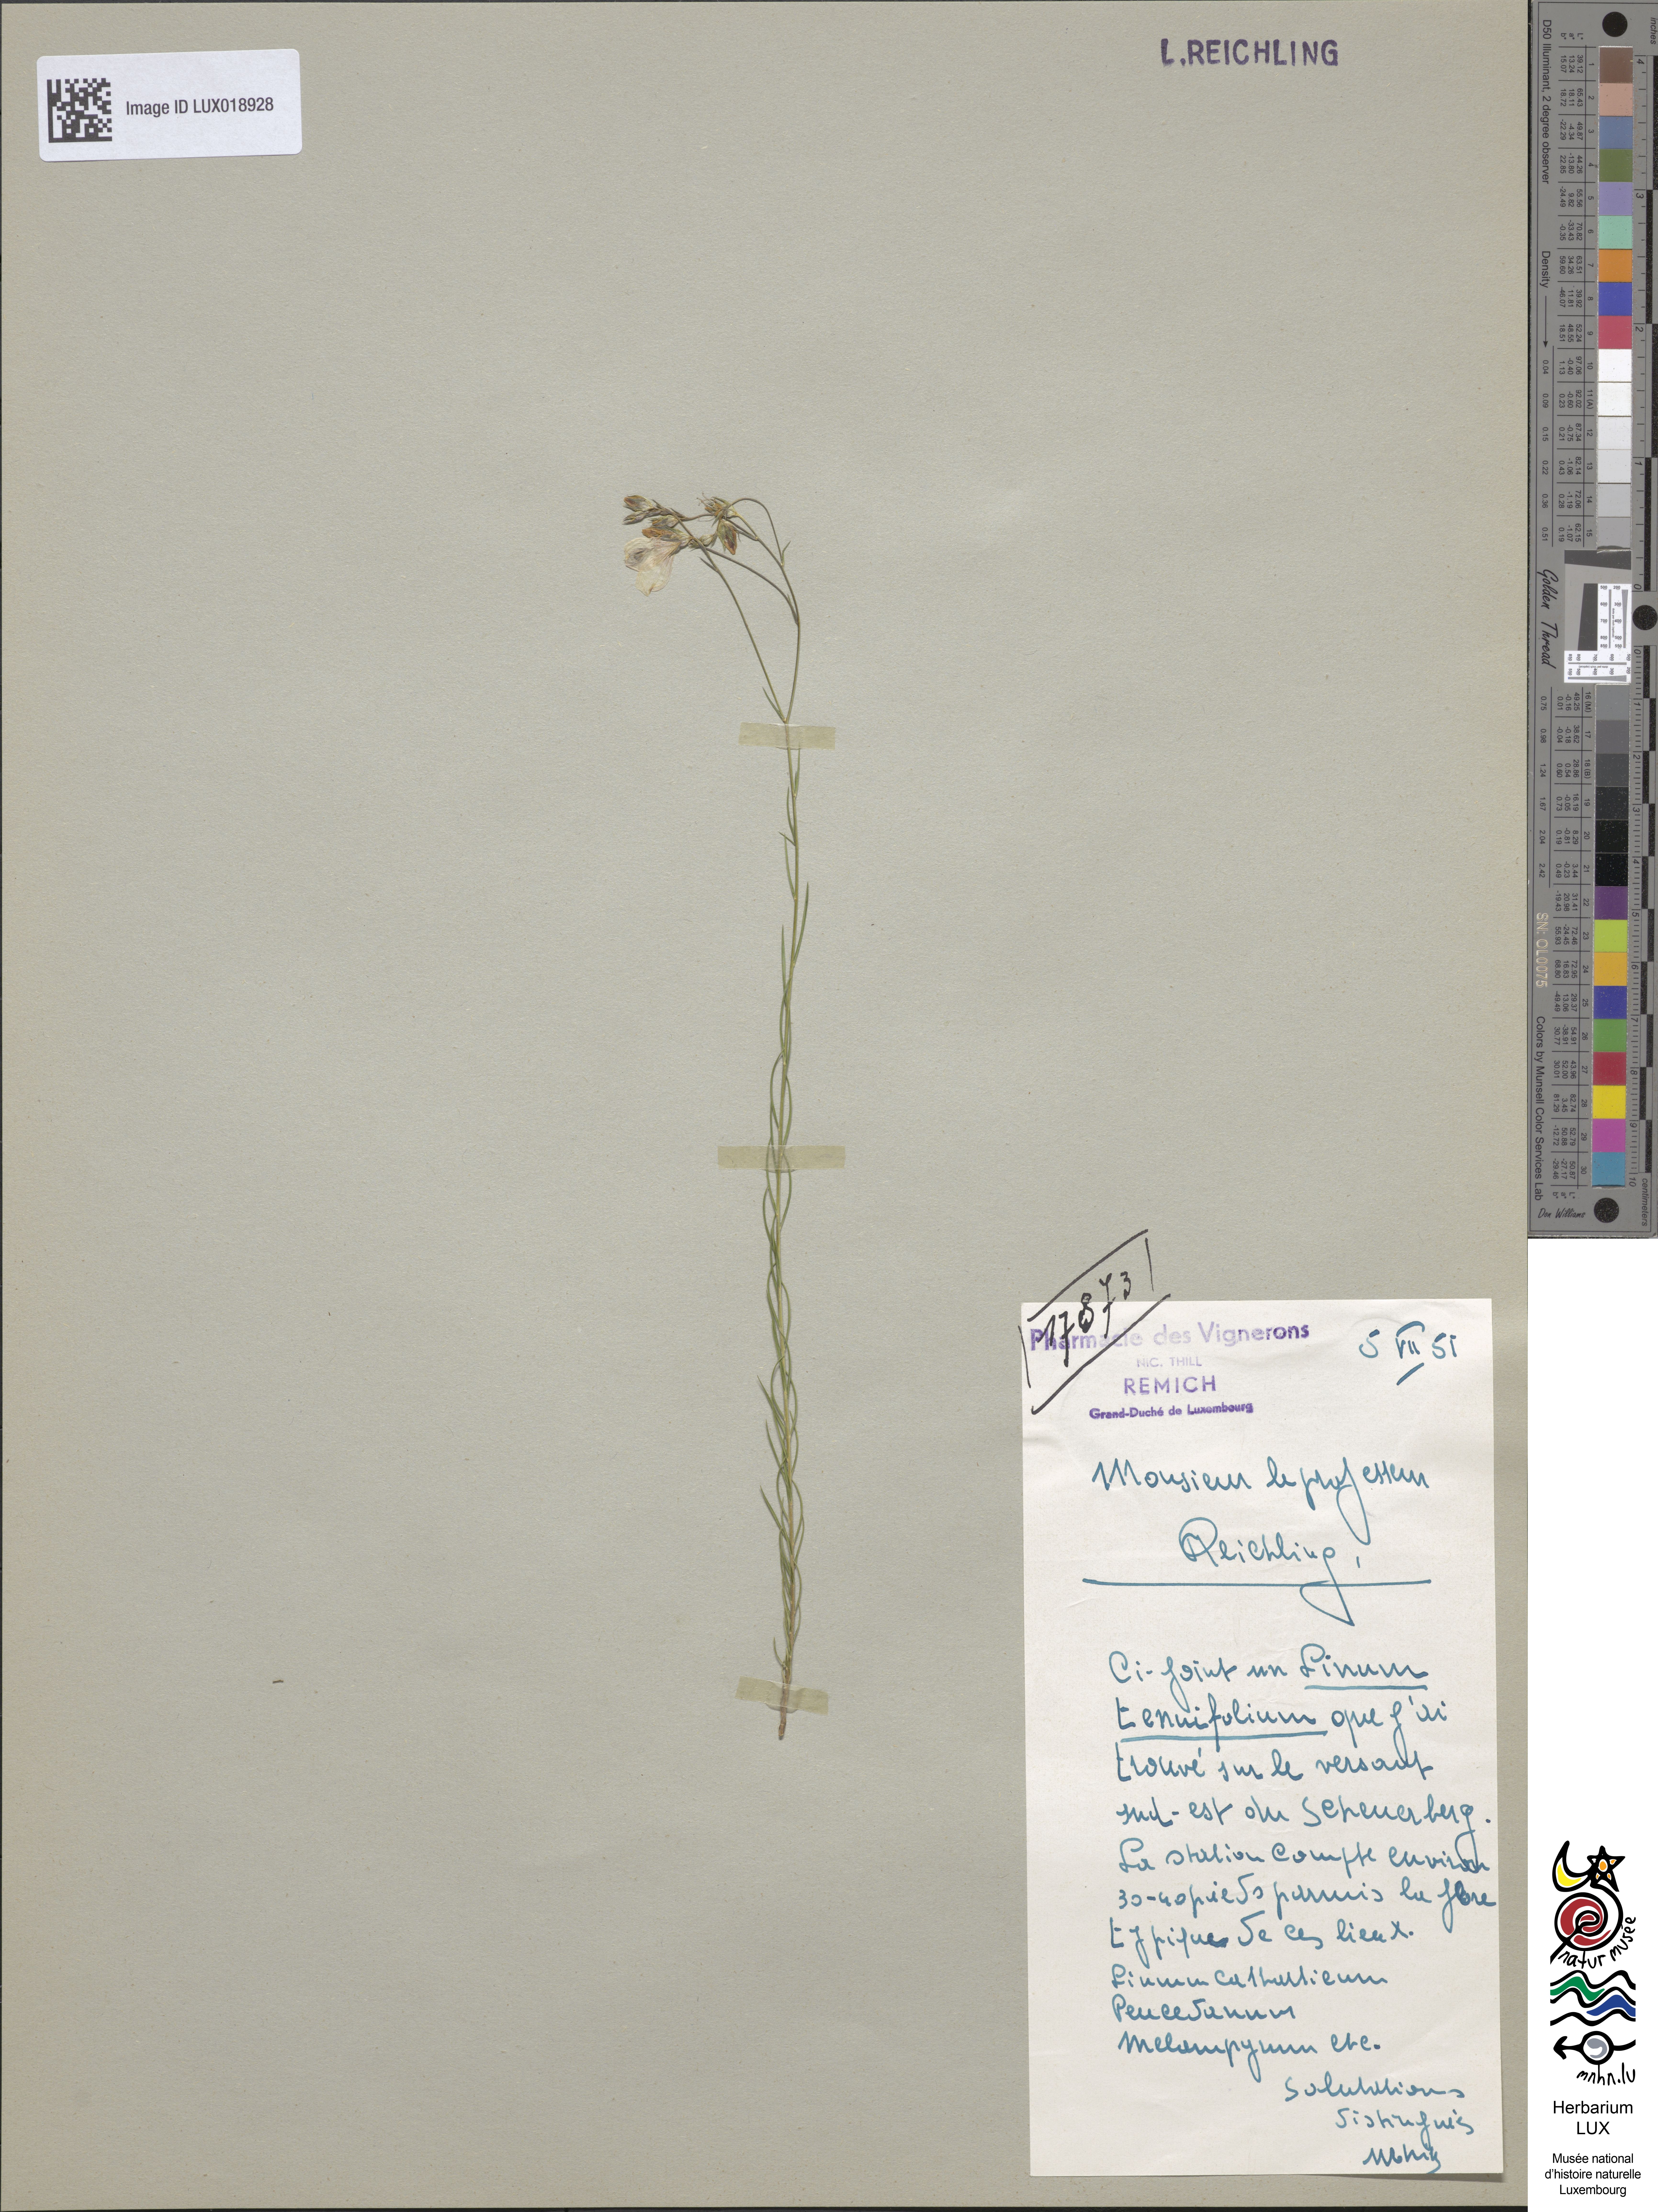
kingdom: Plantae
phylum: Tracheophyta
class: Magnoliopsida
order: Malpighiales
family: Linaceae
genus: Linum
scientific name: Linum tenuifolium
